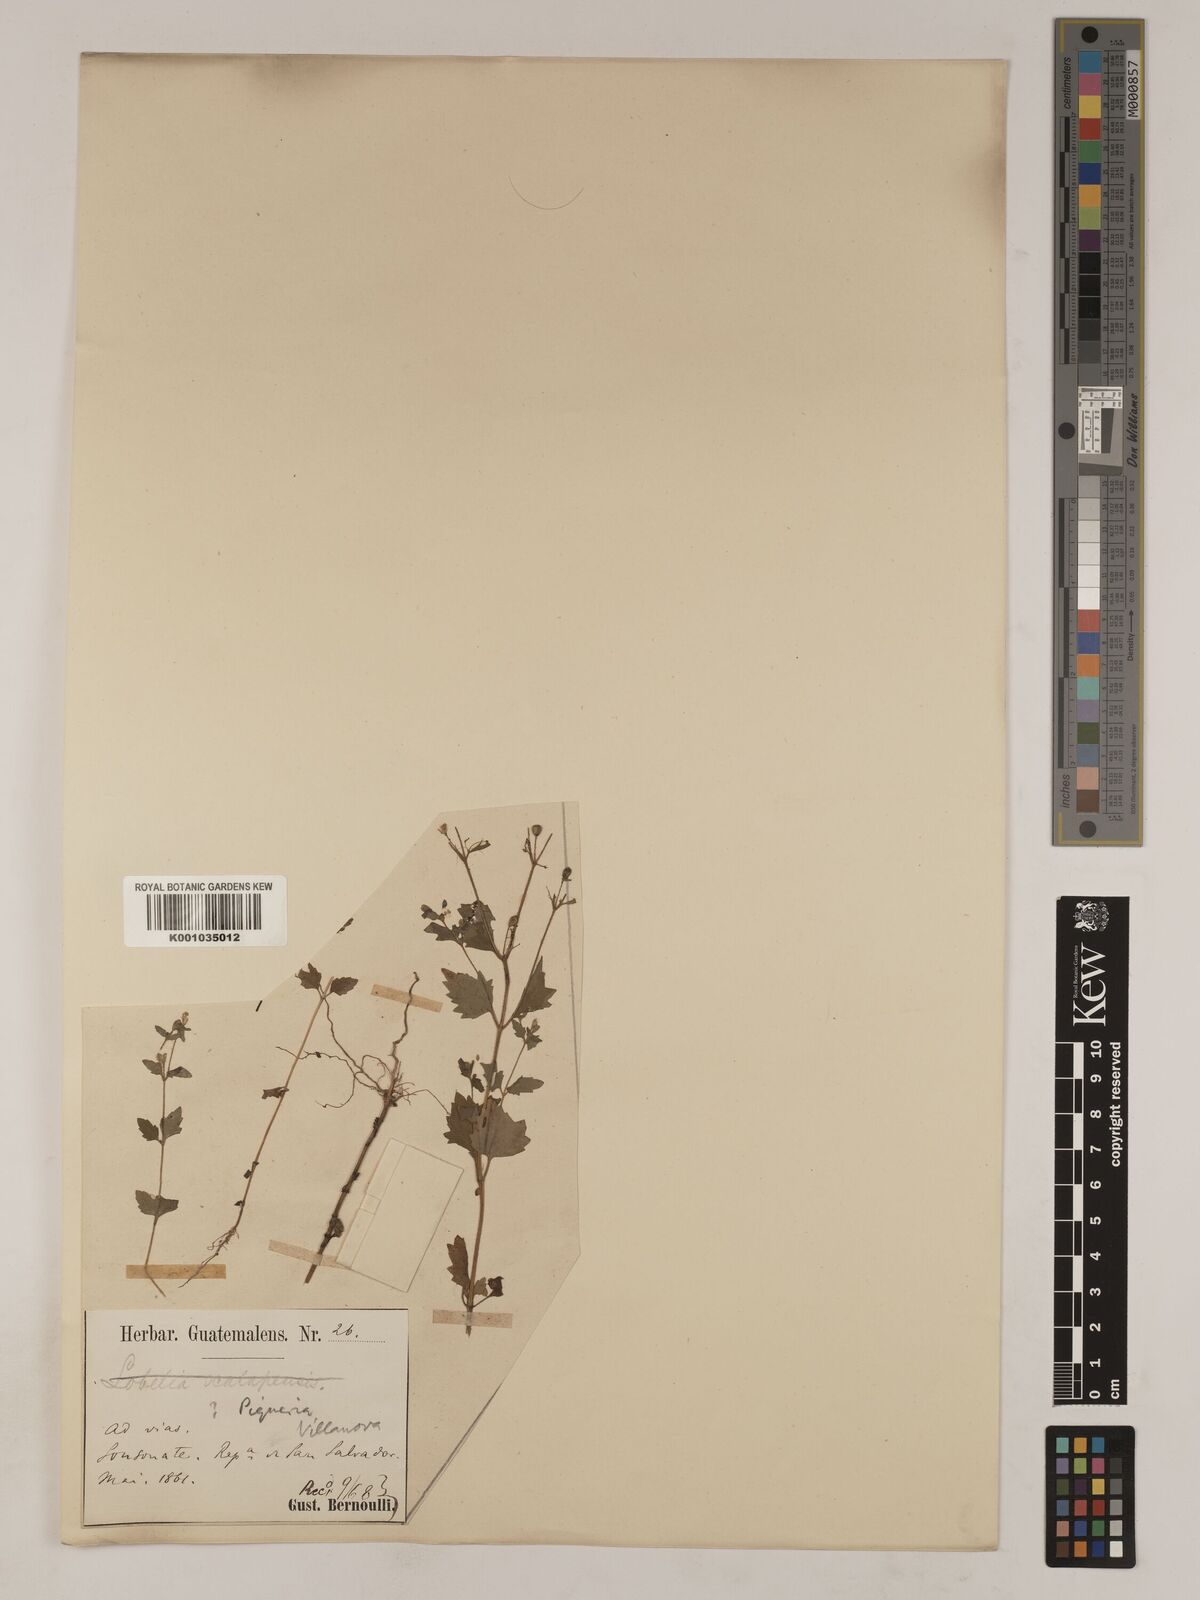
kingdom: Plantae
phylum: Tracheophyta
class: Magnoliopsida
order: Asterales
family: Asteraceae
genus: Galeana
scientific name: Galeana pratensis
